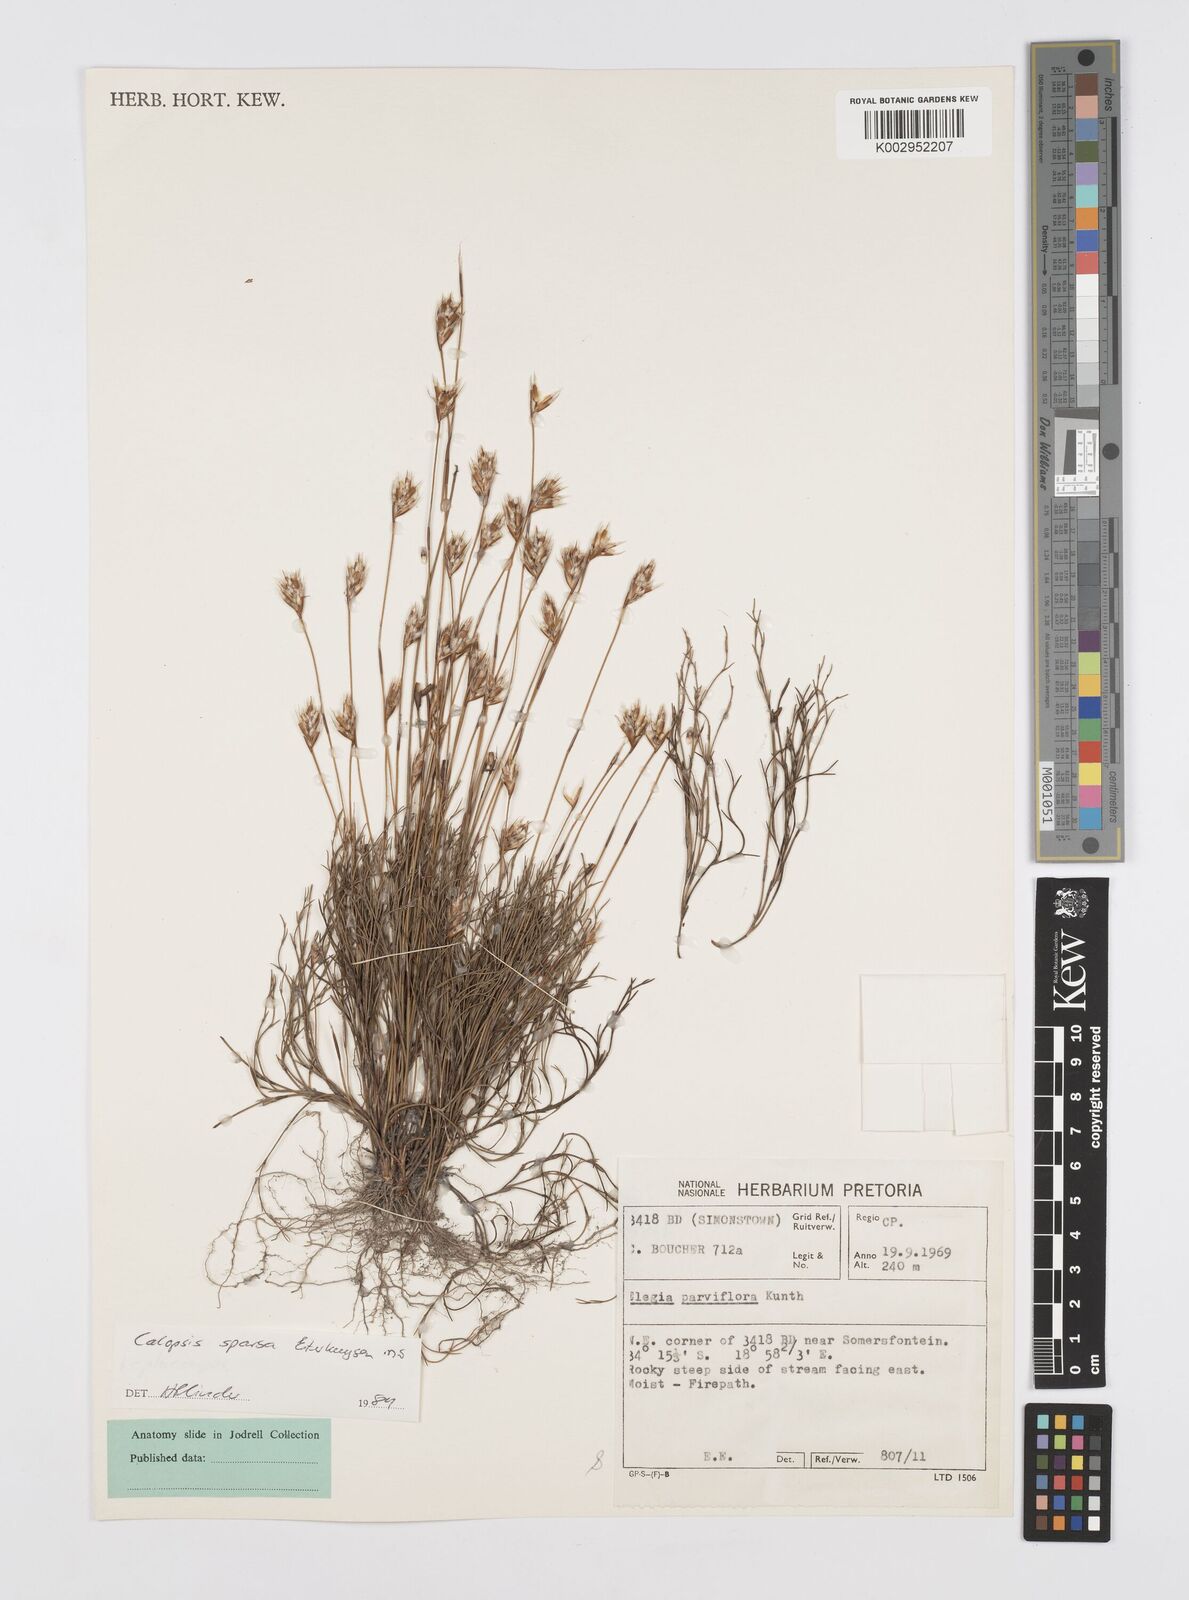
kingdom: Plantae
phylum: Tracheophyta
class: Liliopsida
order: Poales
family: Restionaceae
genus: Restio
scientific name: Restio strobilifer
